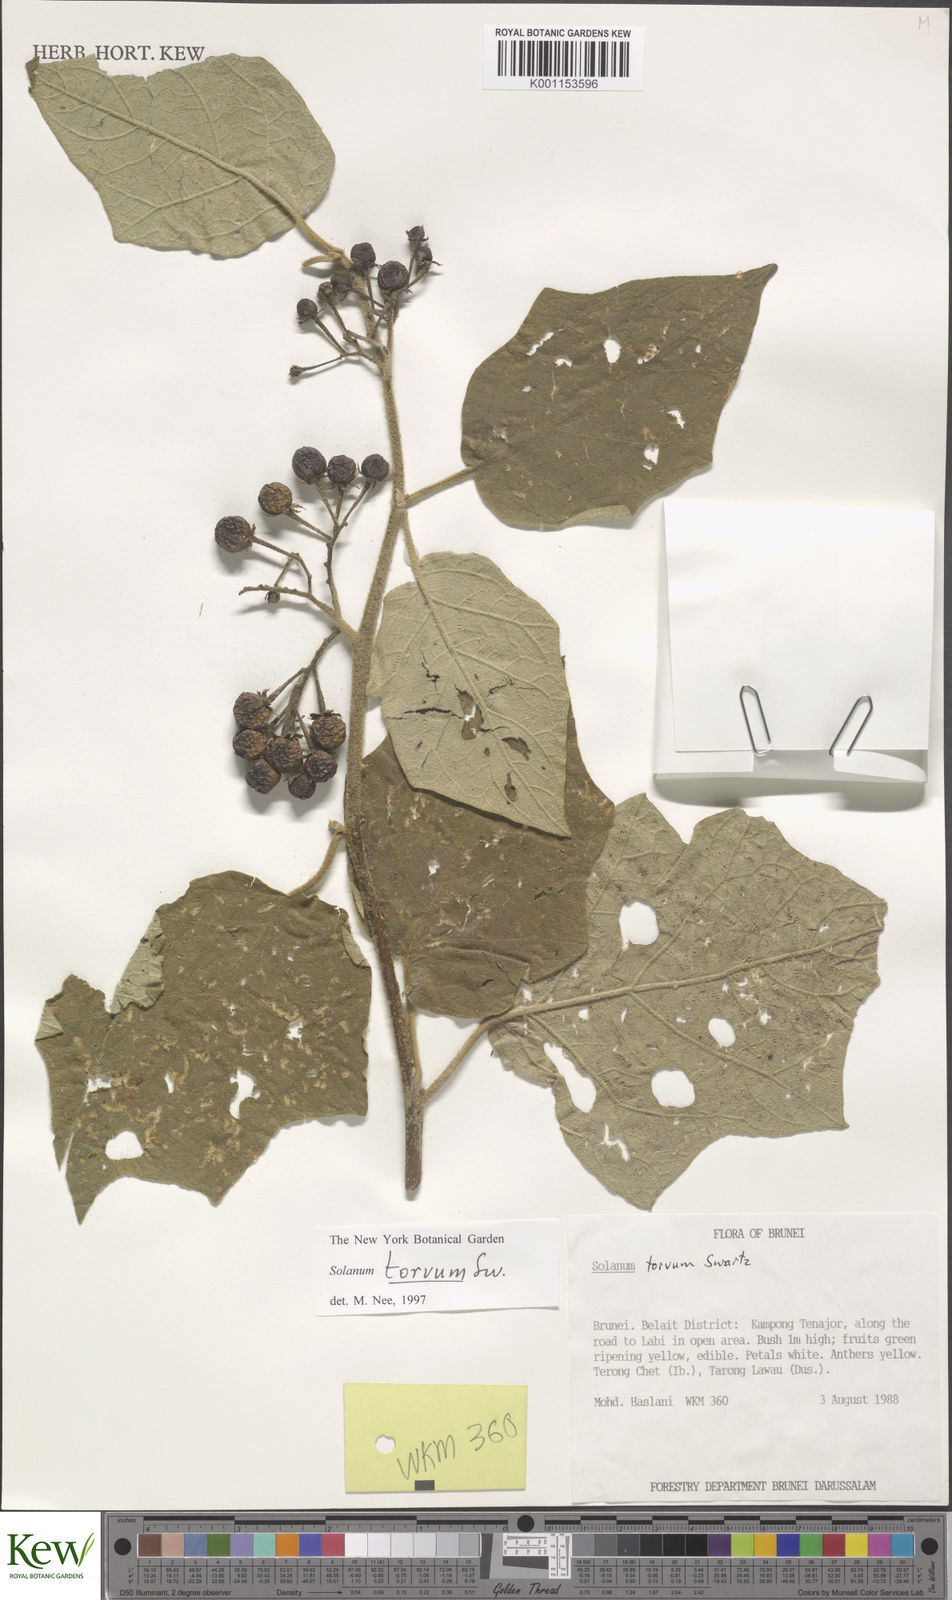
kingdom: Plantae
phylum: Tracheophyta
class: Magnoliopsida
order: Solanales
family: Solanaceae
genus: Solanum
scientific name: Solanum torvum
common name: Turkey berry
